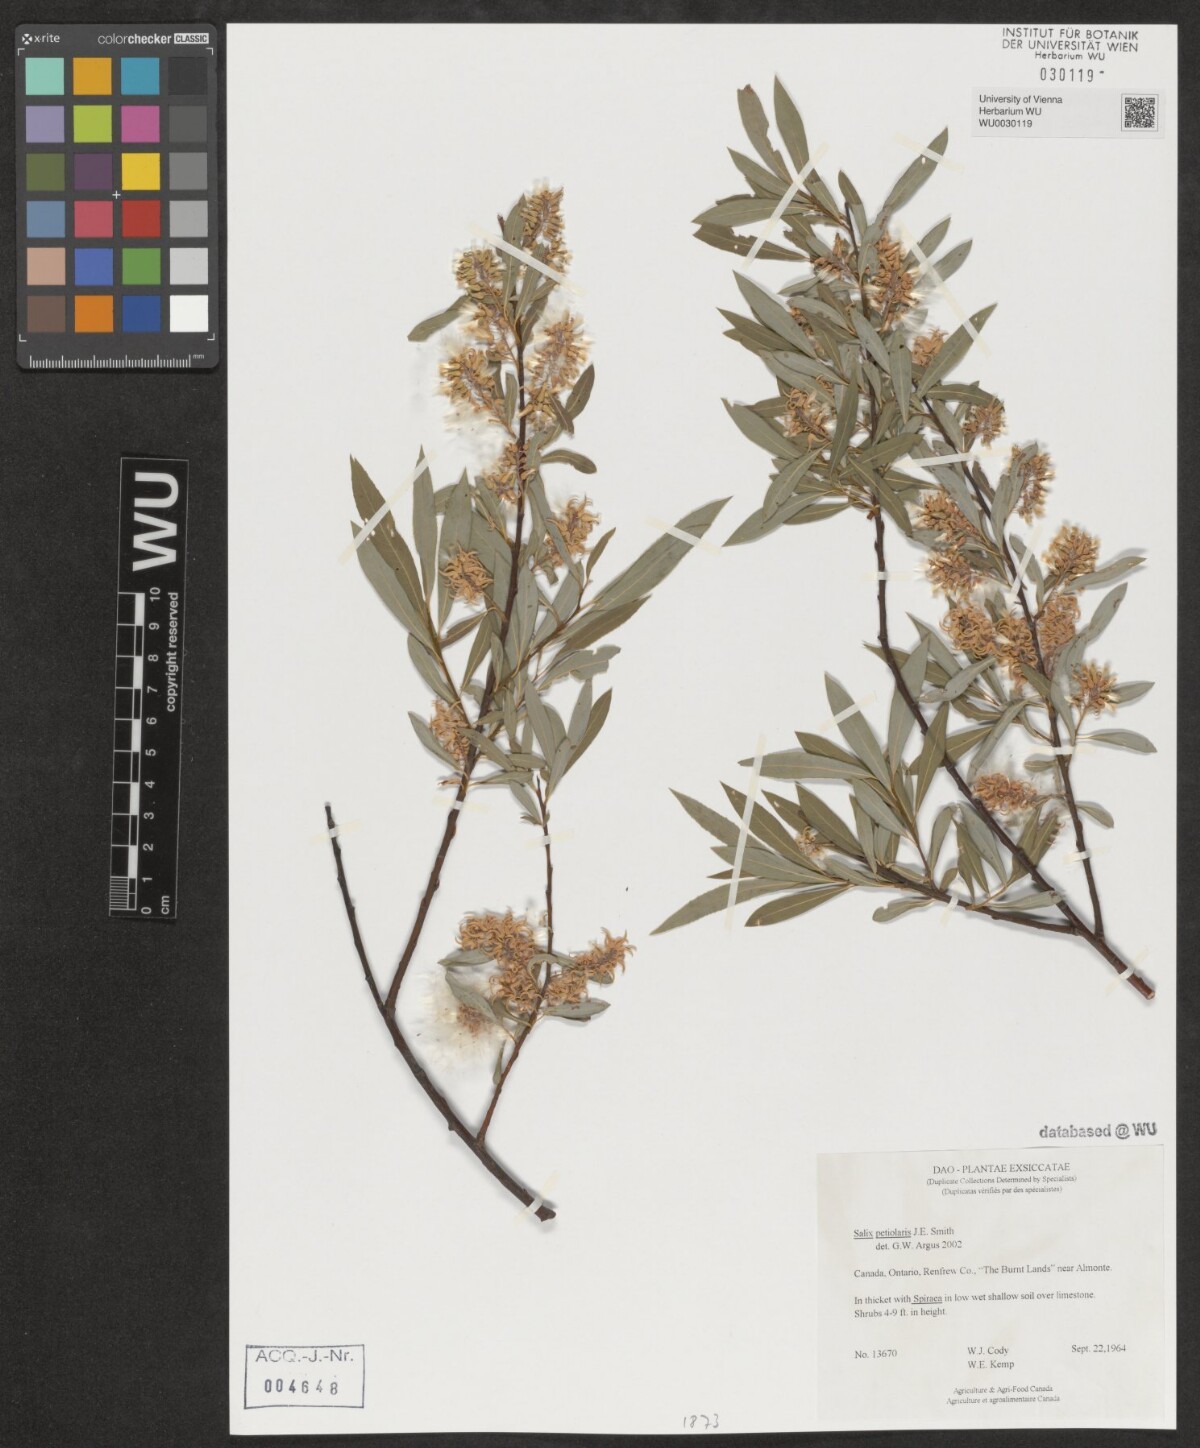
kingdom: Plantae
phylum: Tracheophyta
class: Magnoliopsida
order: Malpighiales
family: Salicaceae
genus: Salix
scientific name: Salix petiolaris
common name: Slender willow
